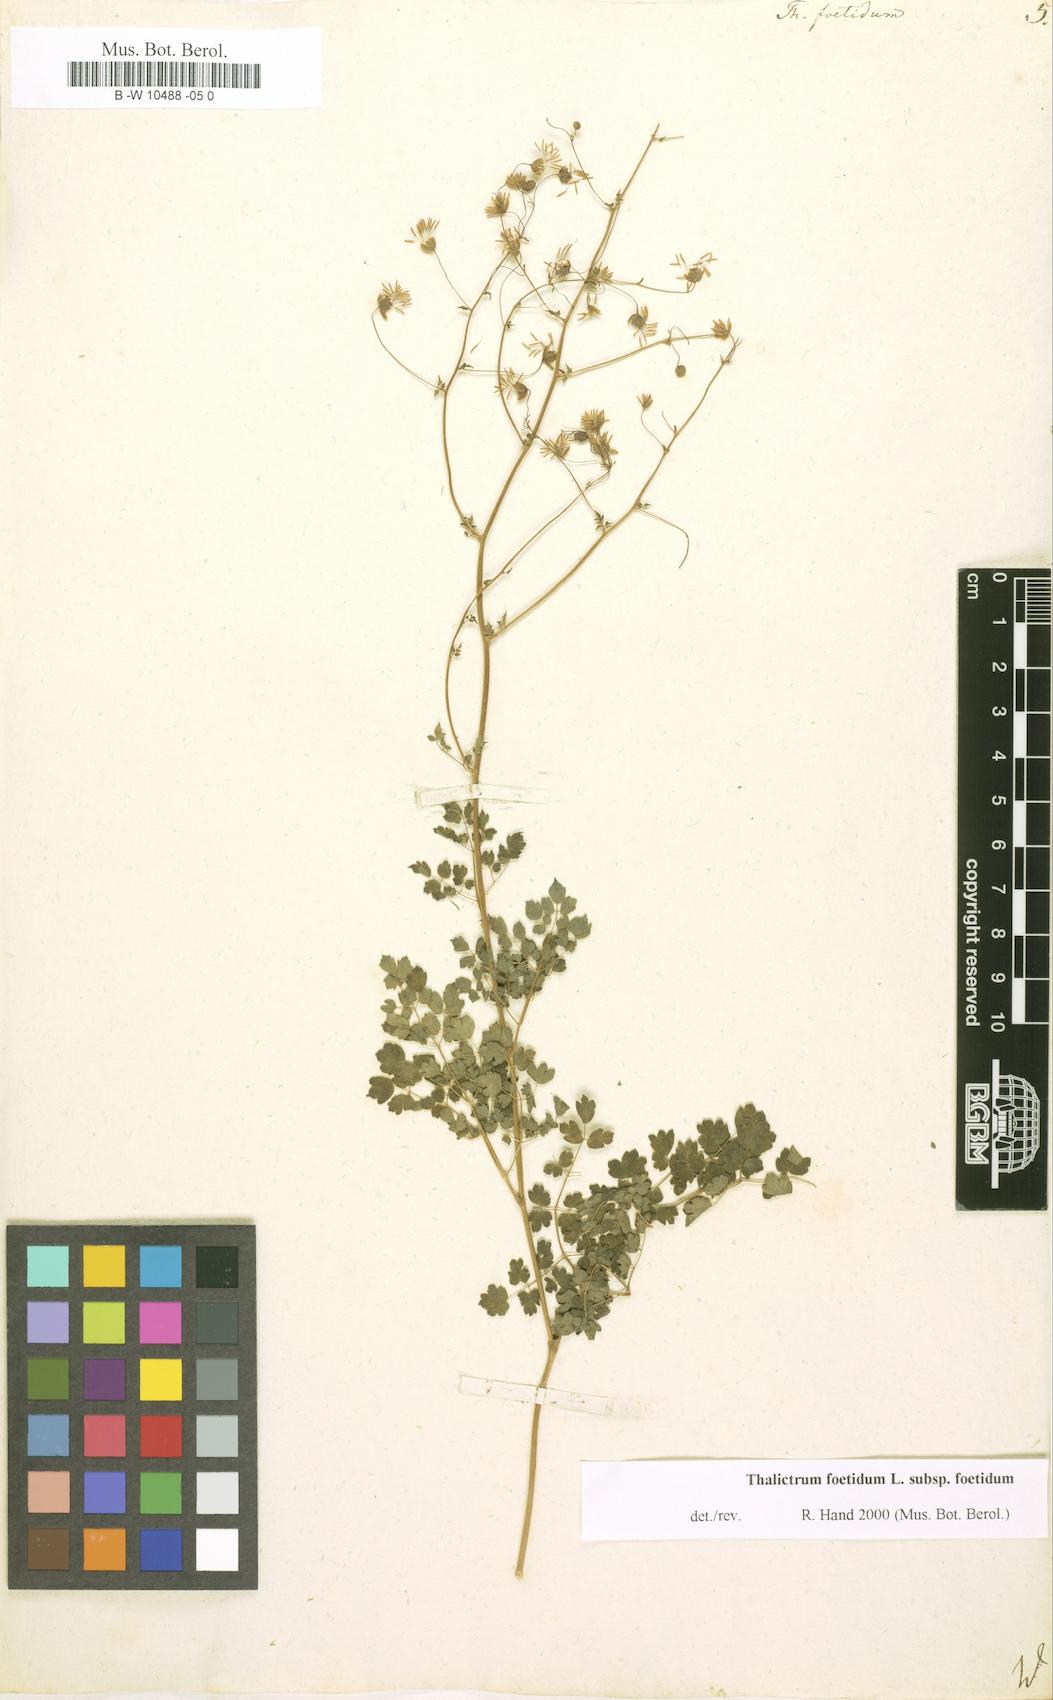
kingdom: Plantae
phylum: Tracheophyta
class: Magnoliopsida
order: Ranunculales
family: Ranunculaceae
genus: Thalictrum
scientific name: Thalictrum foetidum
